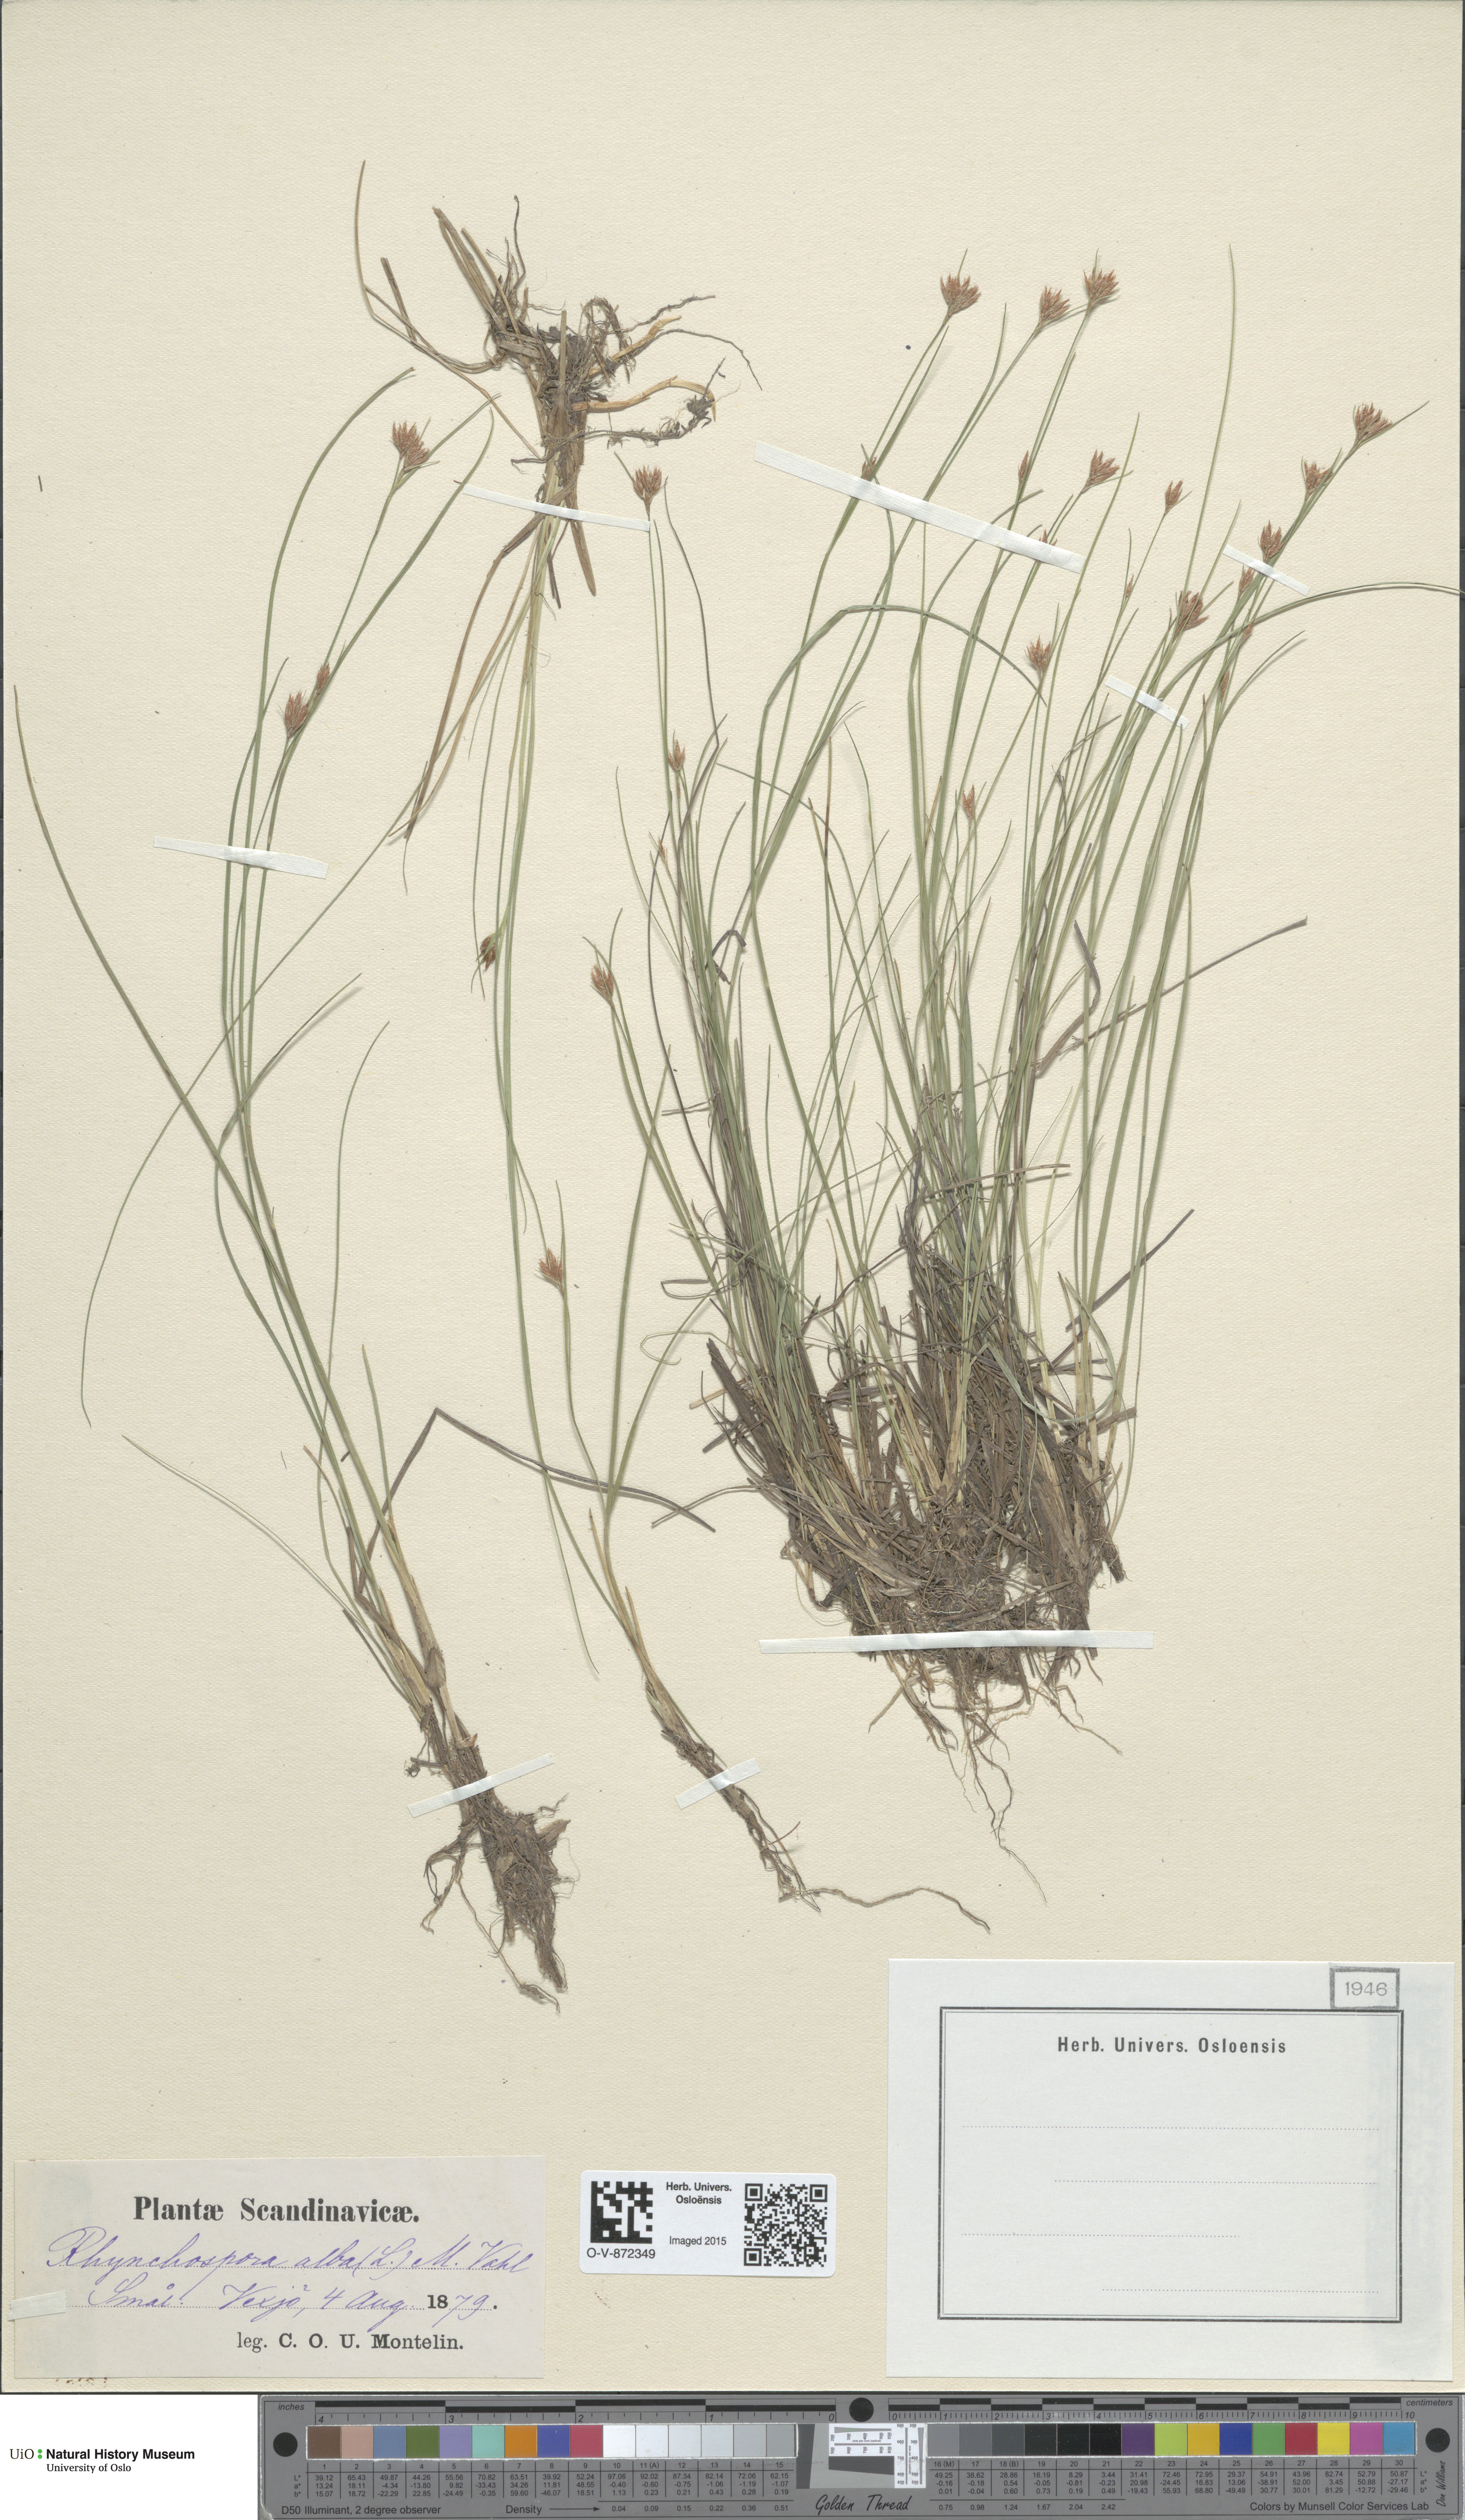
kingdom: Plantae
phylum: Tracheophyta
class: Liliopsida
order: Poales
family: Cyperaceae
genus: Rhynchospora
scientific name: Rhynchospora alba
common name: White beak-sedge
